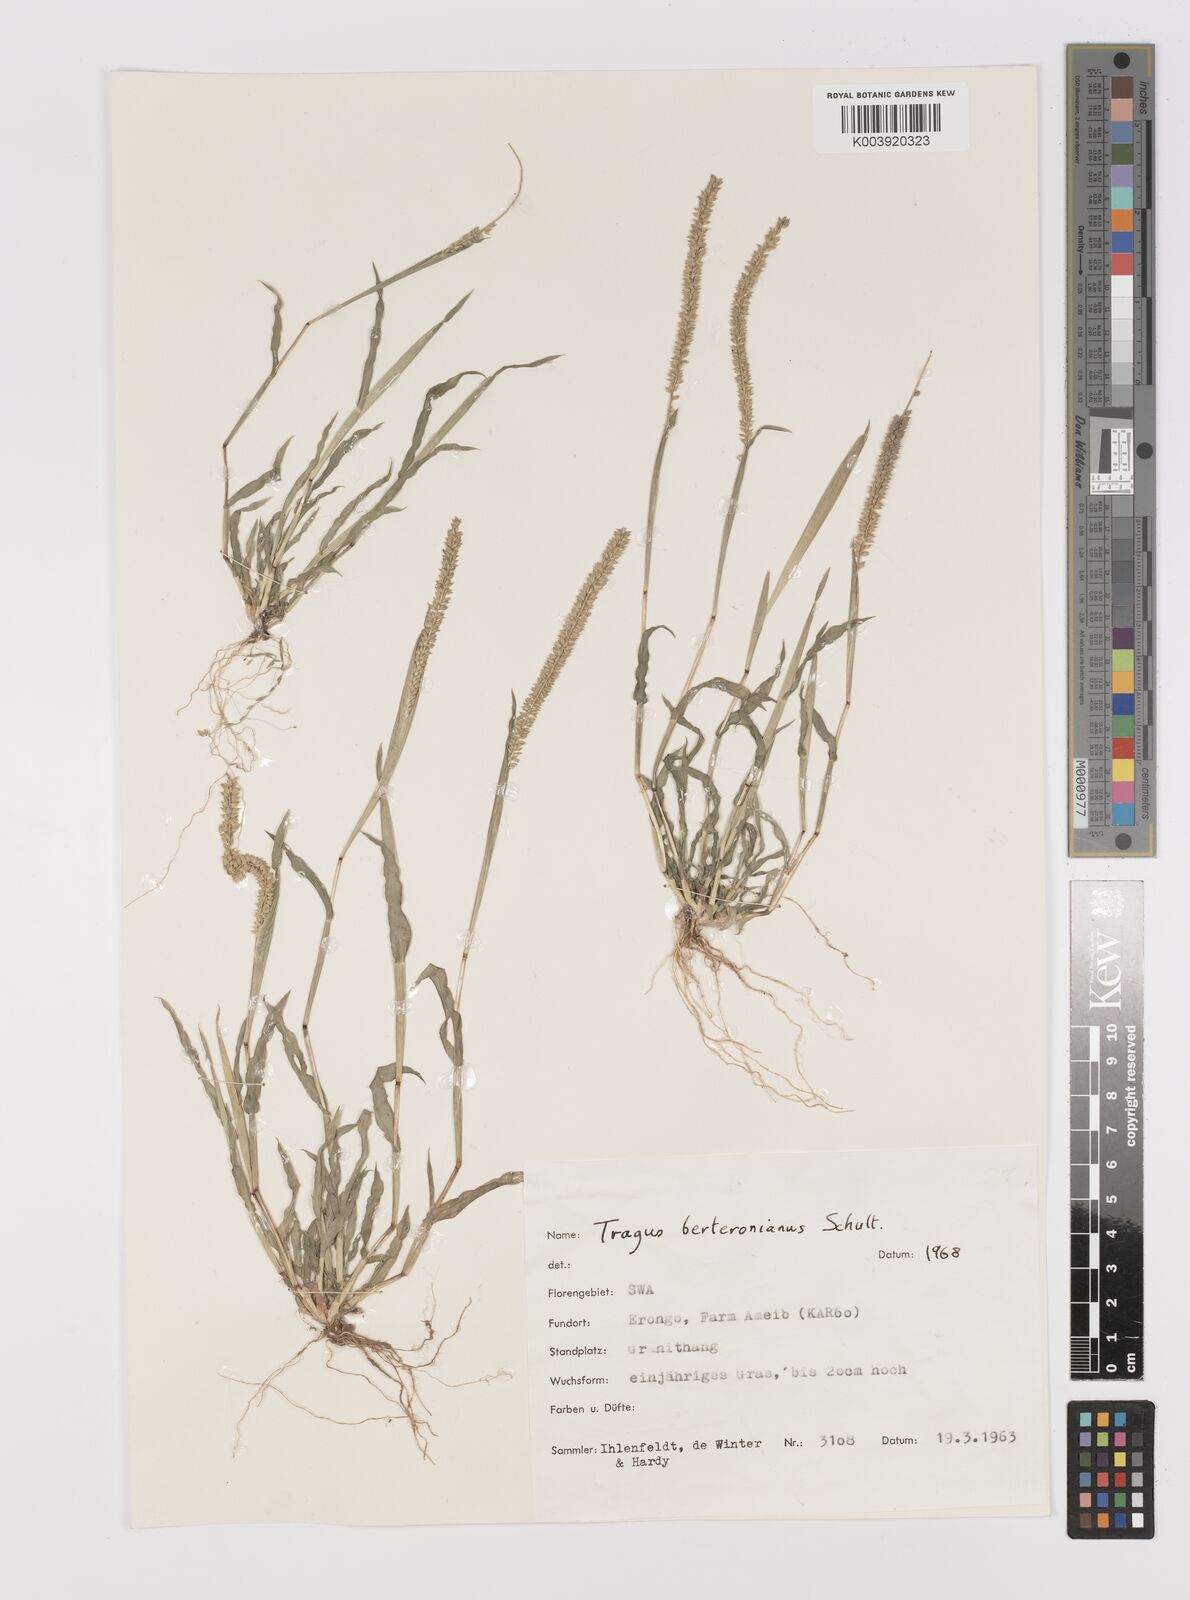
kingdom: Plantae
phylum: Tracheophyta
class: Liliopsida
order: Poales
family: Poaceae
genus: Tragus
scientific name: Tragus berteronianus
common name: African bur-grass
